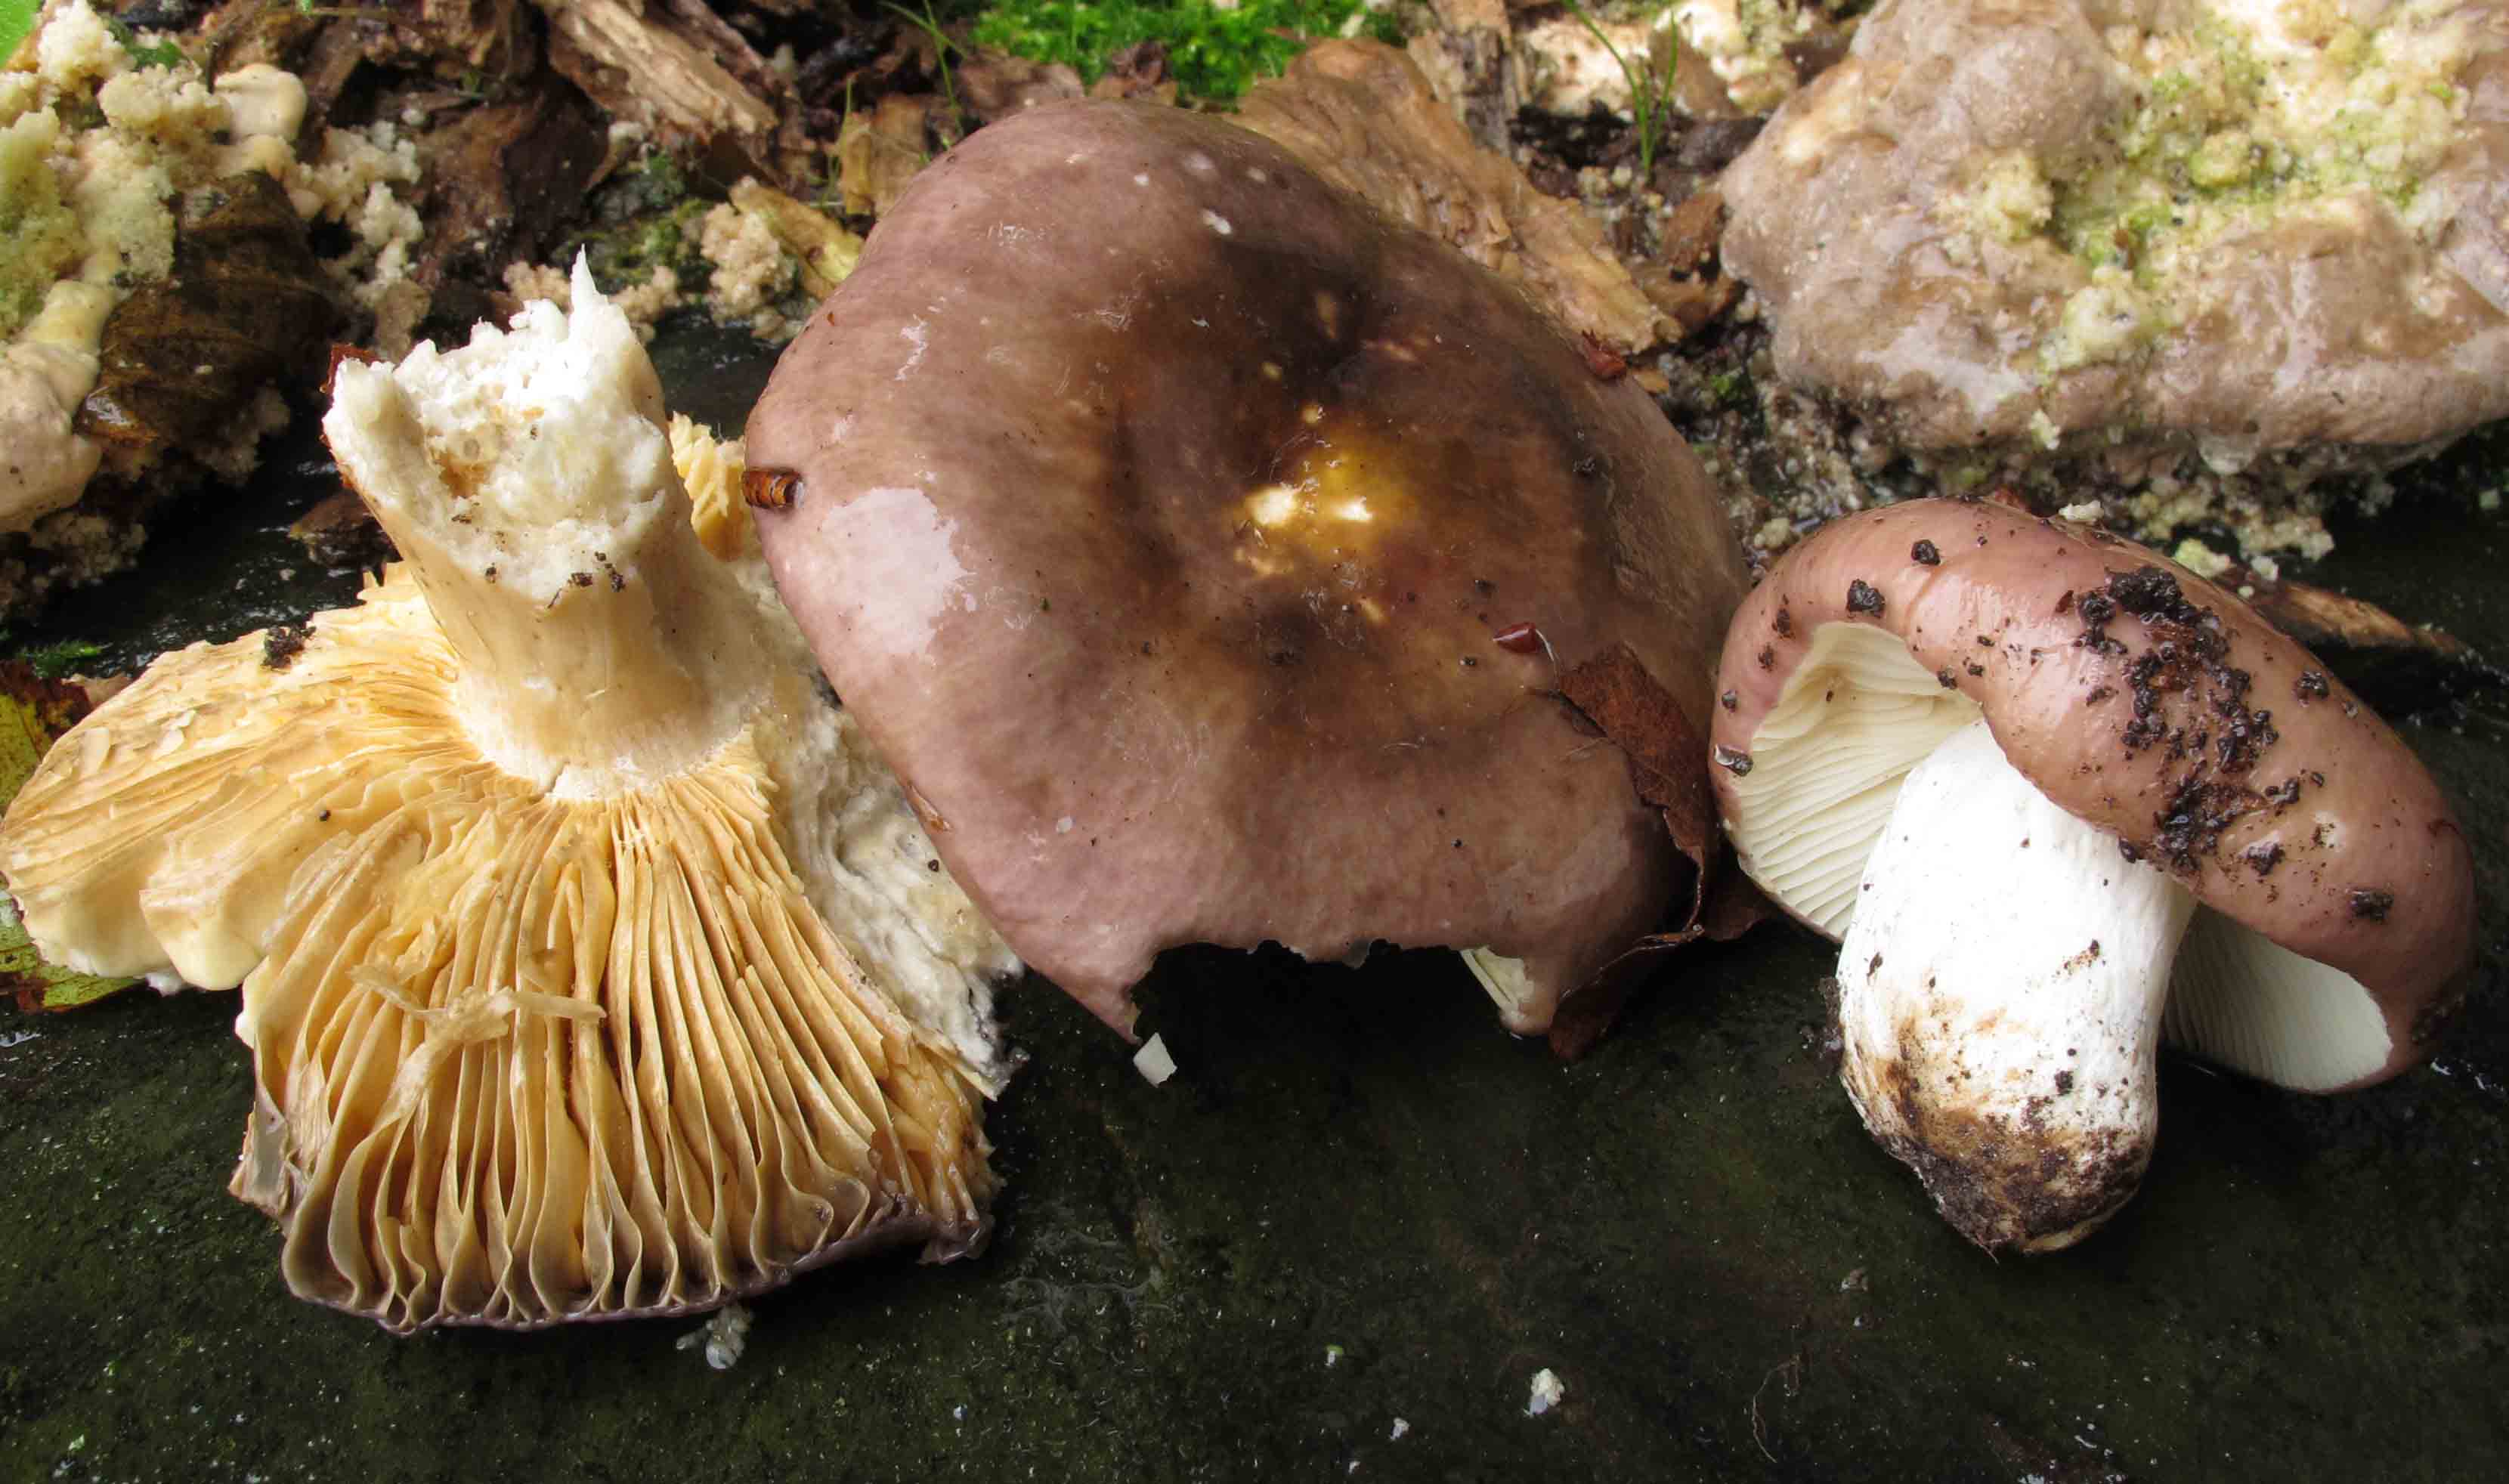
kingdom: Fungi
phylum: Basidiomycota
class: Agaricomycetes
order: Russulales
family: Russulaceae
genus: Russula
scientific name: Russula romellii
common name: romells skørhat
